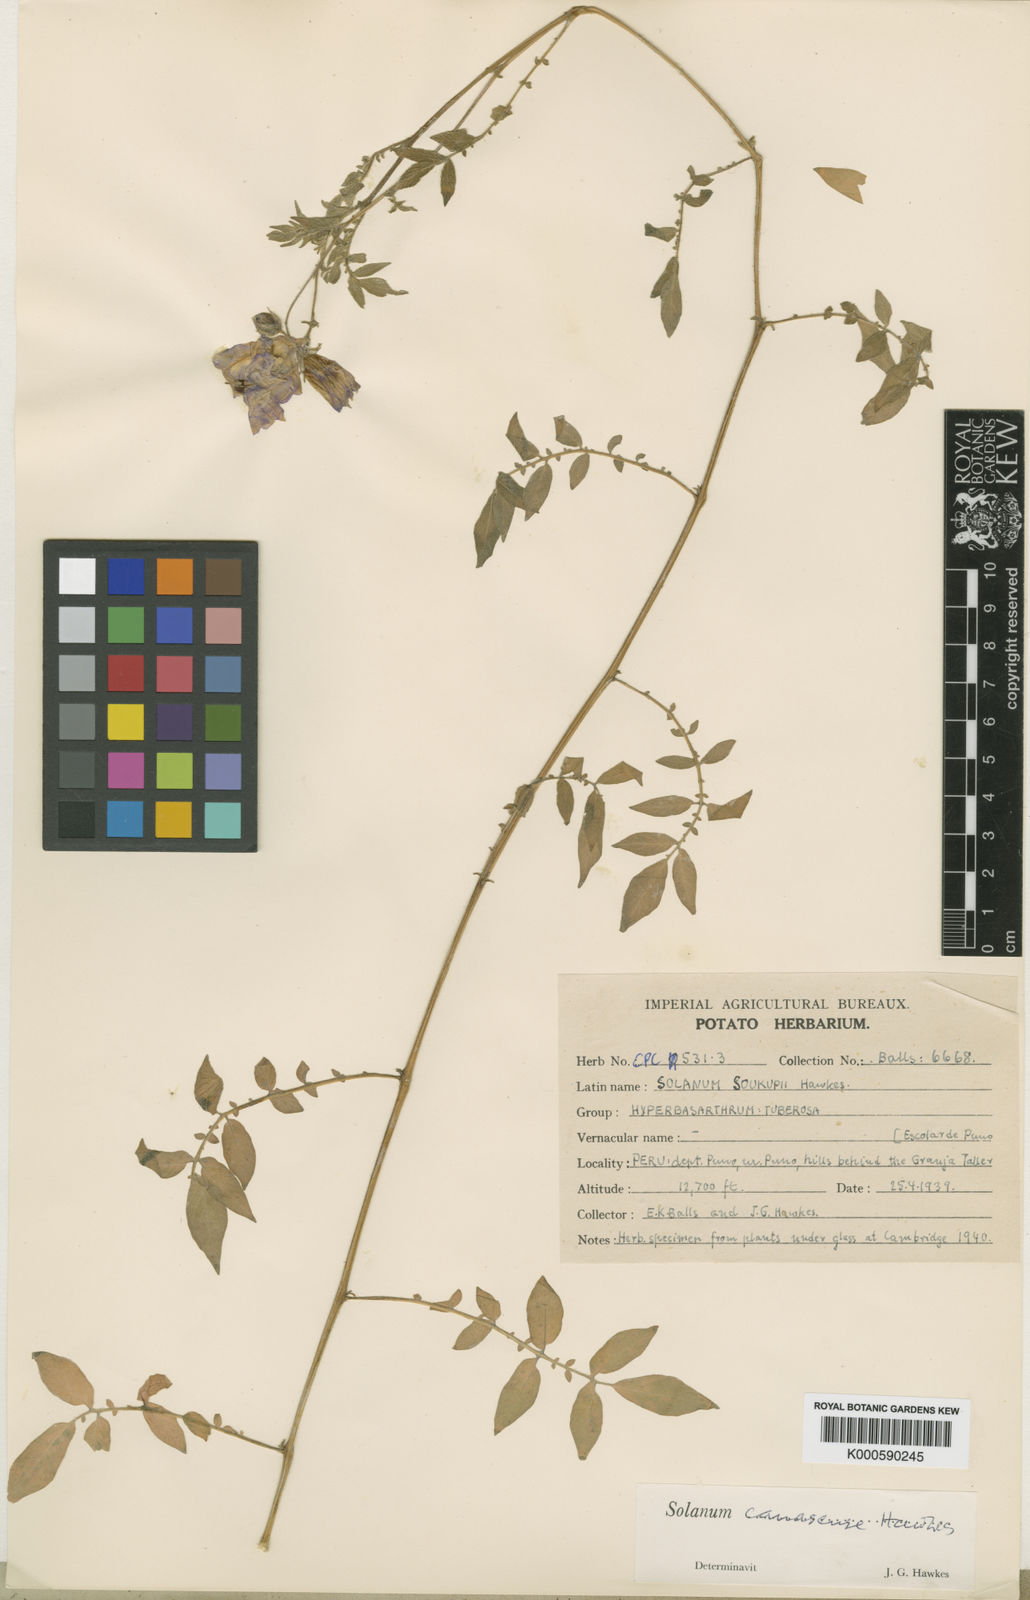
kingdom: Plantae
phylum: Tracheophyta
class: Magnoliopsida
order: Solanales
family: Solanaceae
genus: Solanum
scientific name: Solanum candolleanum
